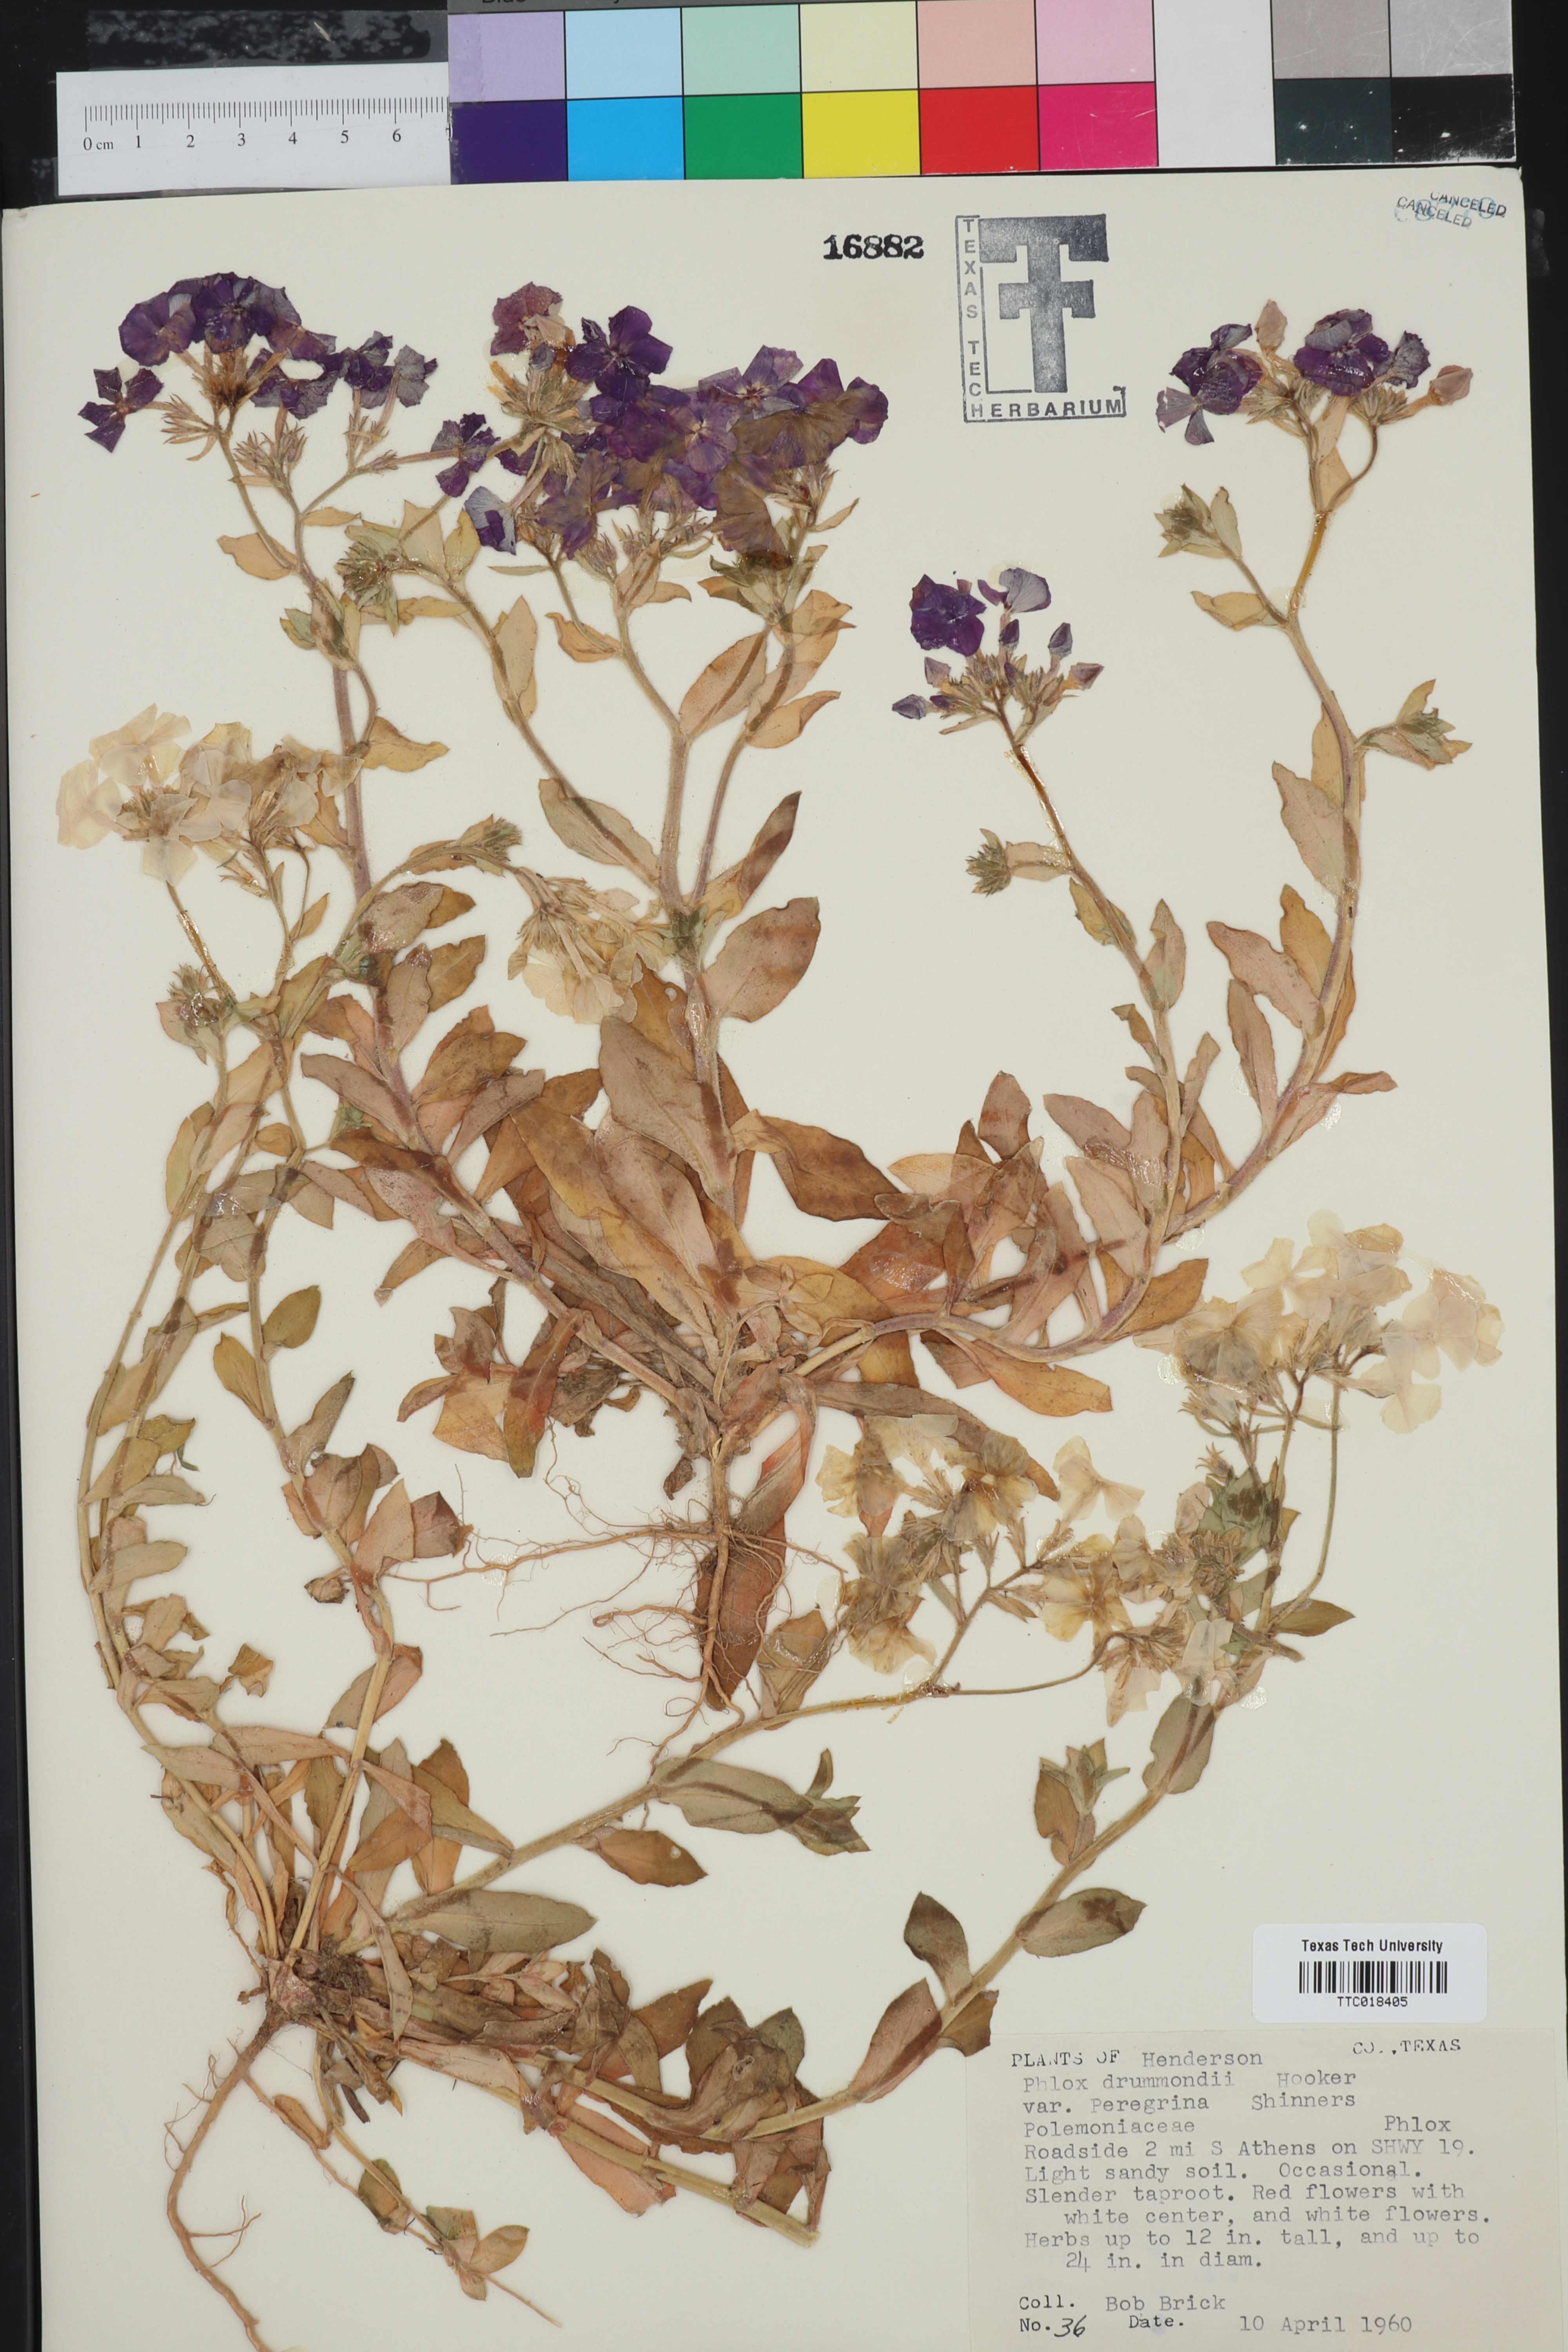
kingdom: Plantae
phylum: Tracheophyta
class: Magnoliopsida
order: Ericales
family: Polemoniaceae
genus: Phlox
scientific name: Phlox drummondii
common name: Drummond's phlox
